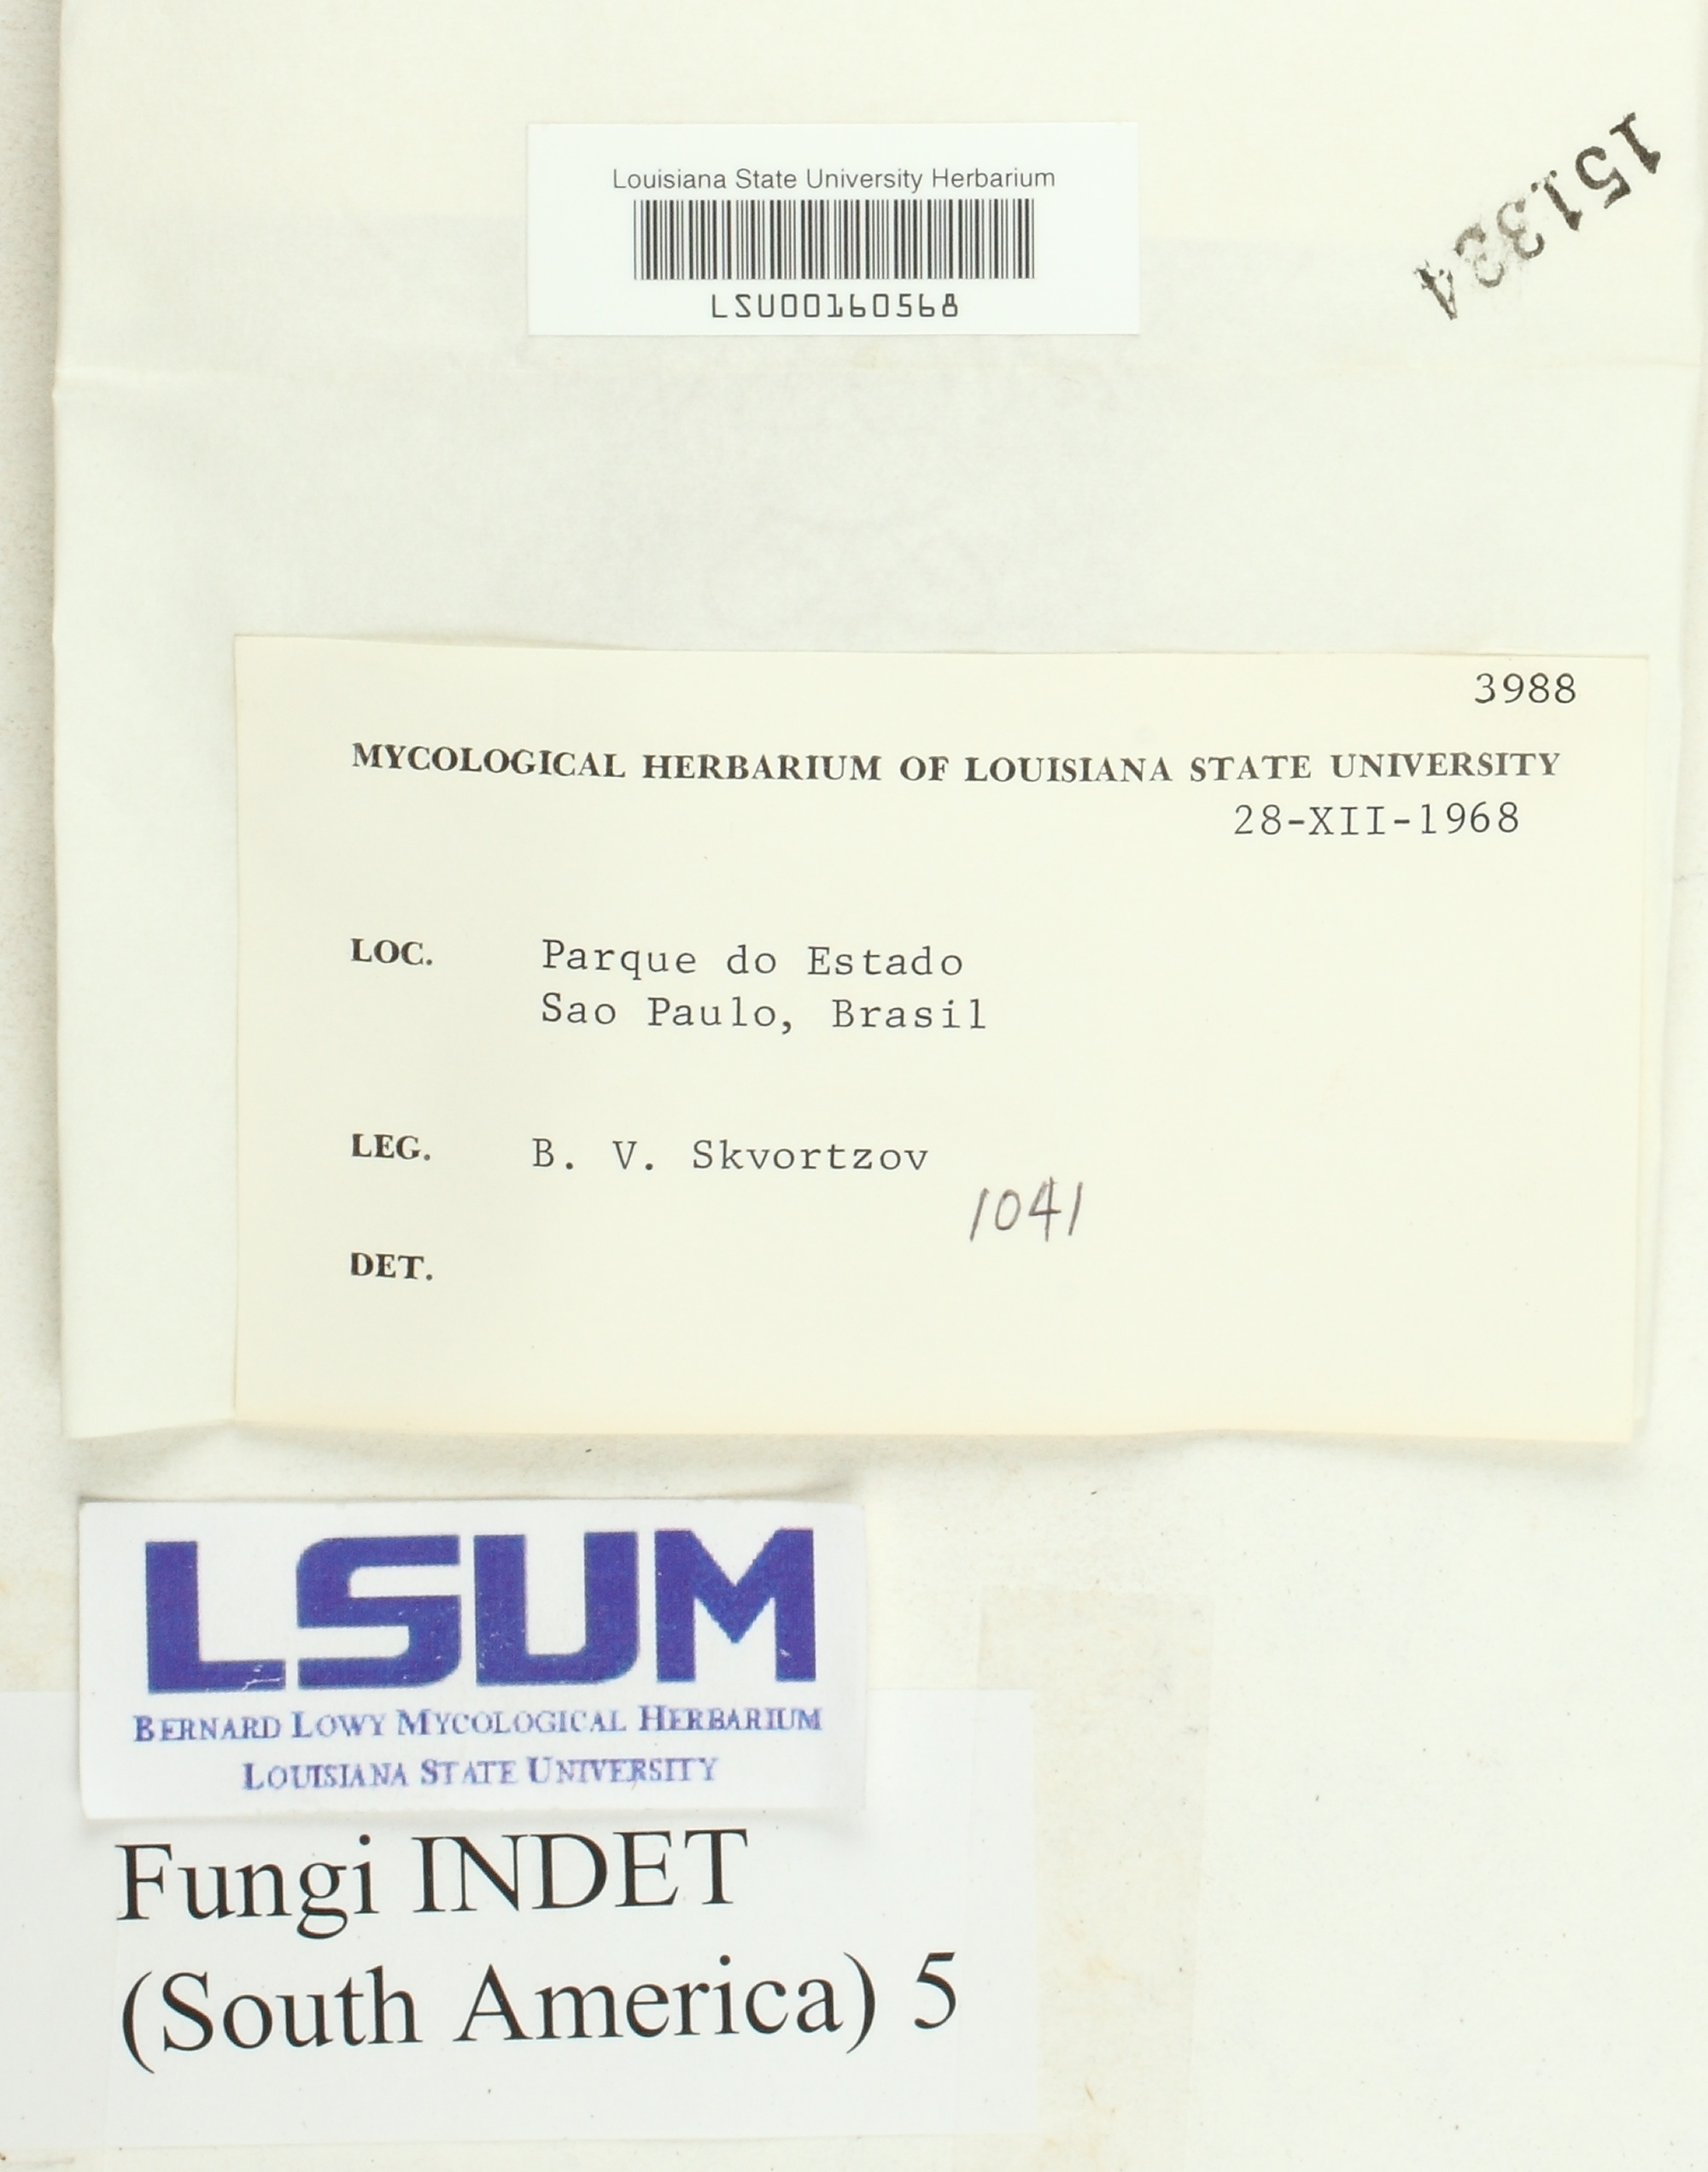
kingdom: Fungi
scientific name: Fungi
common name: Fungi
